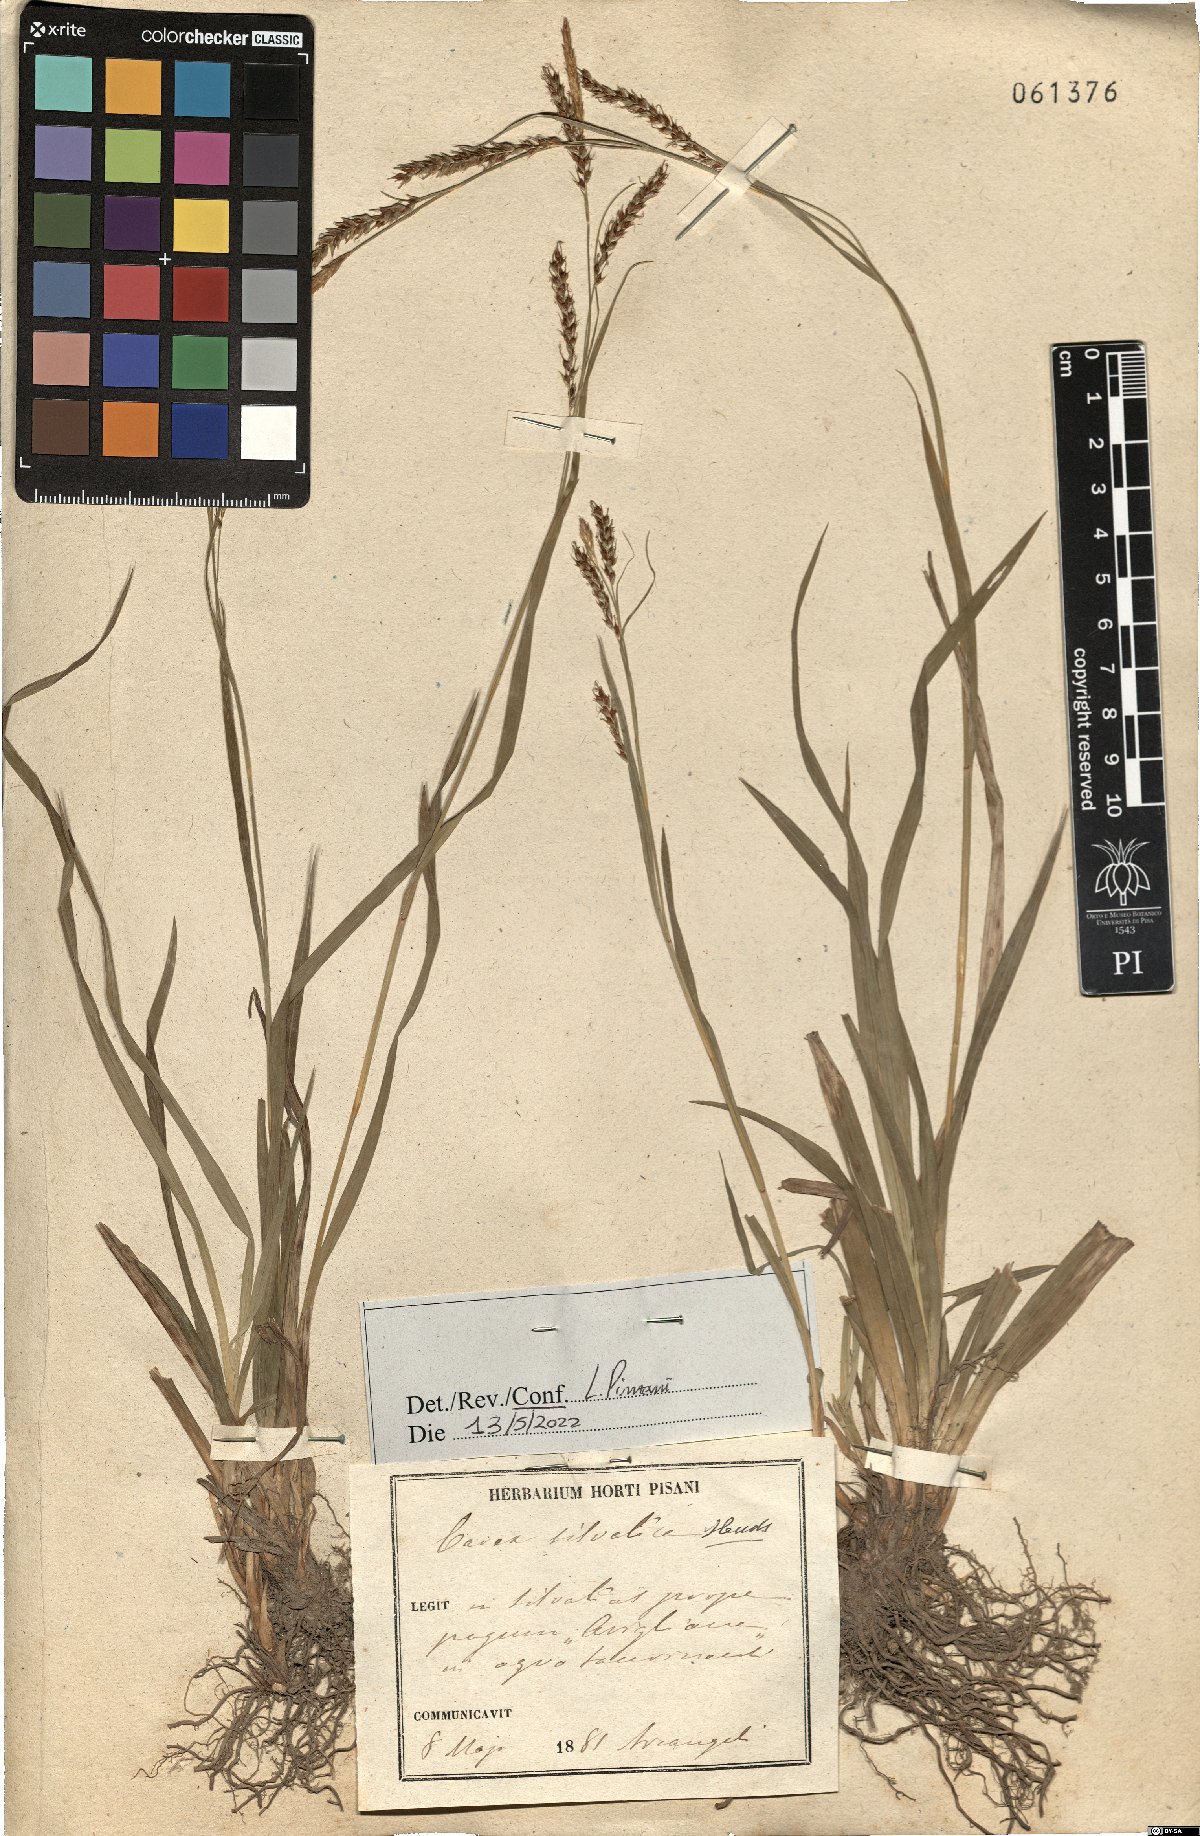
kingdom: Plantae
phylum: Tracheophyta
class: Liliopsida
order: Poales
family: Cyperaceae
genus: Carex
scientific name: Carex sylvatica
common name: Wood-sedge
